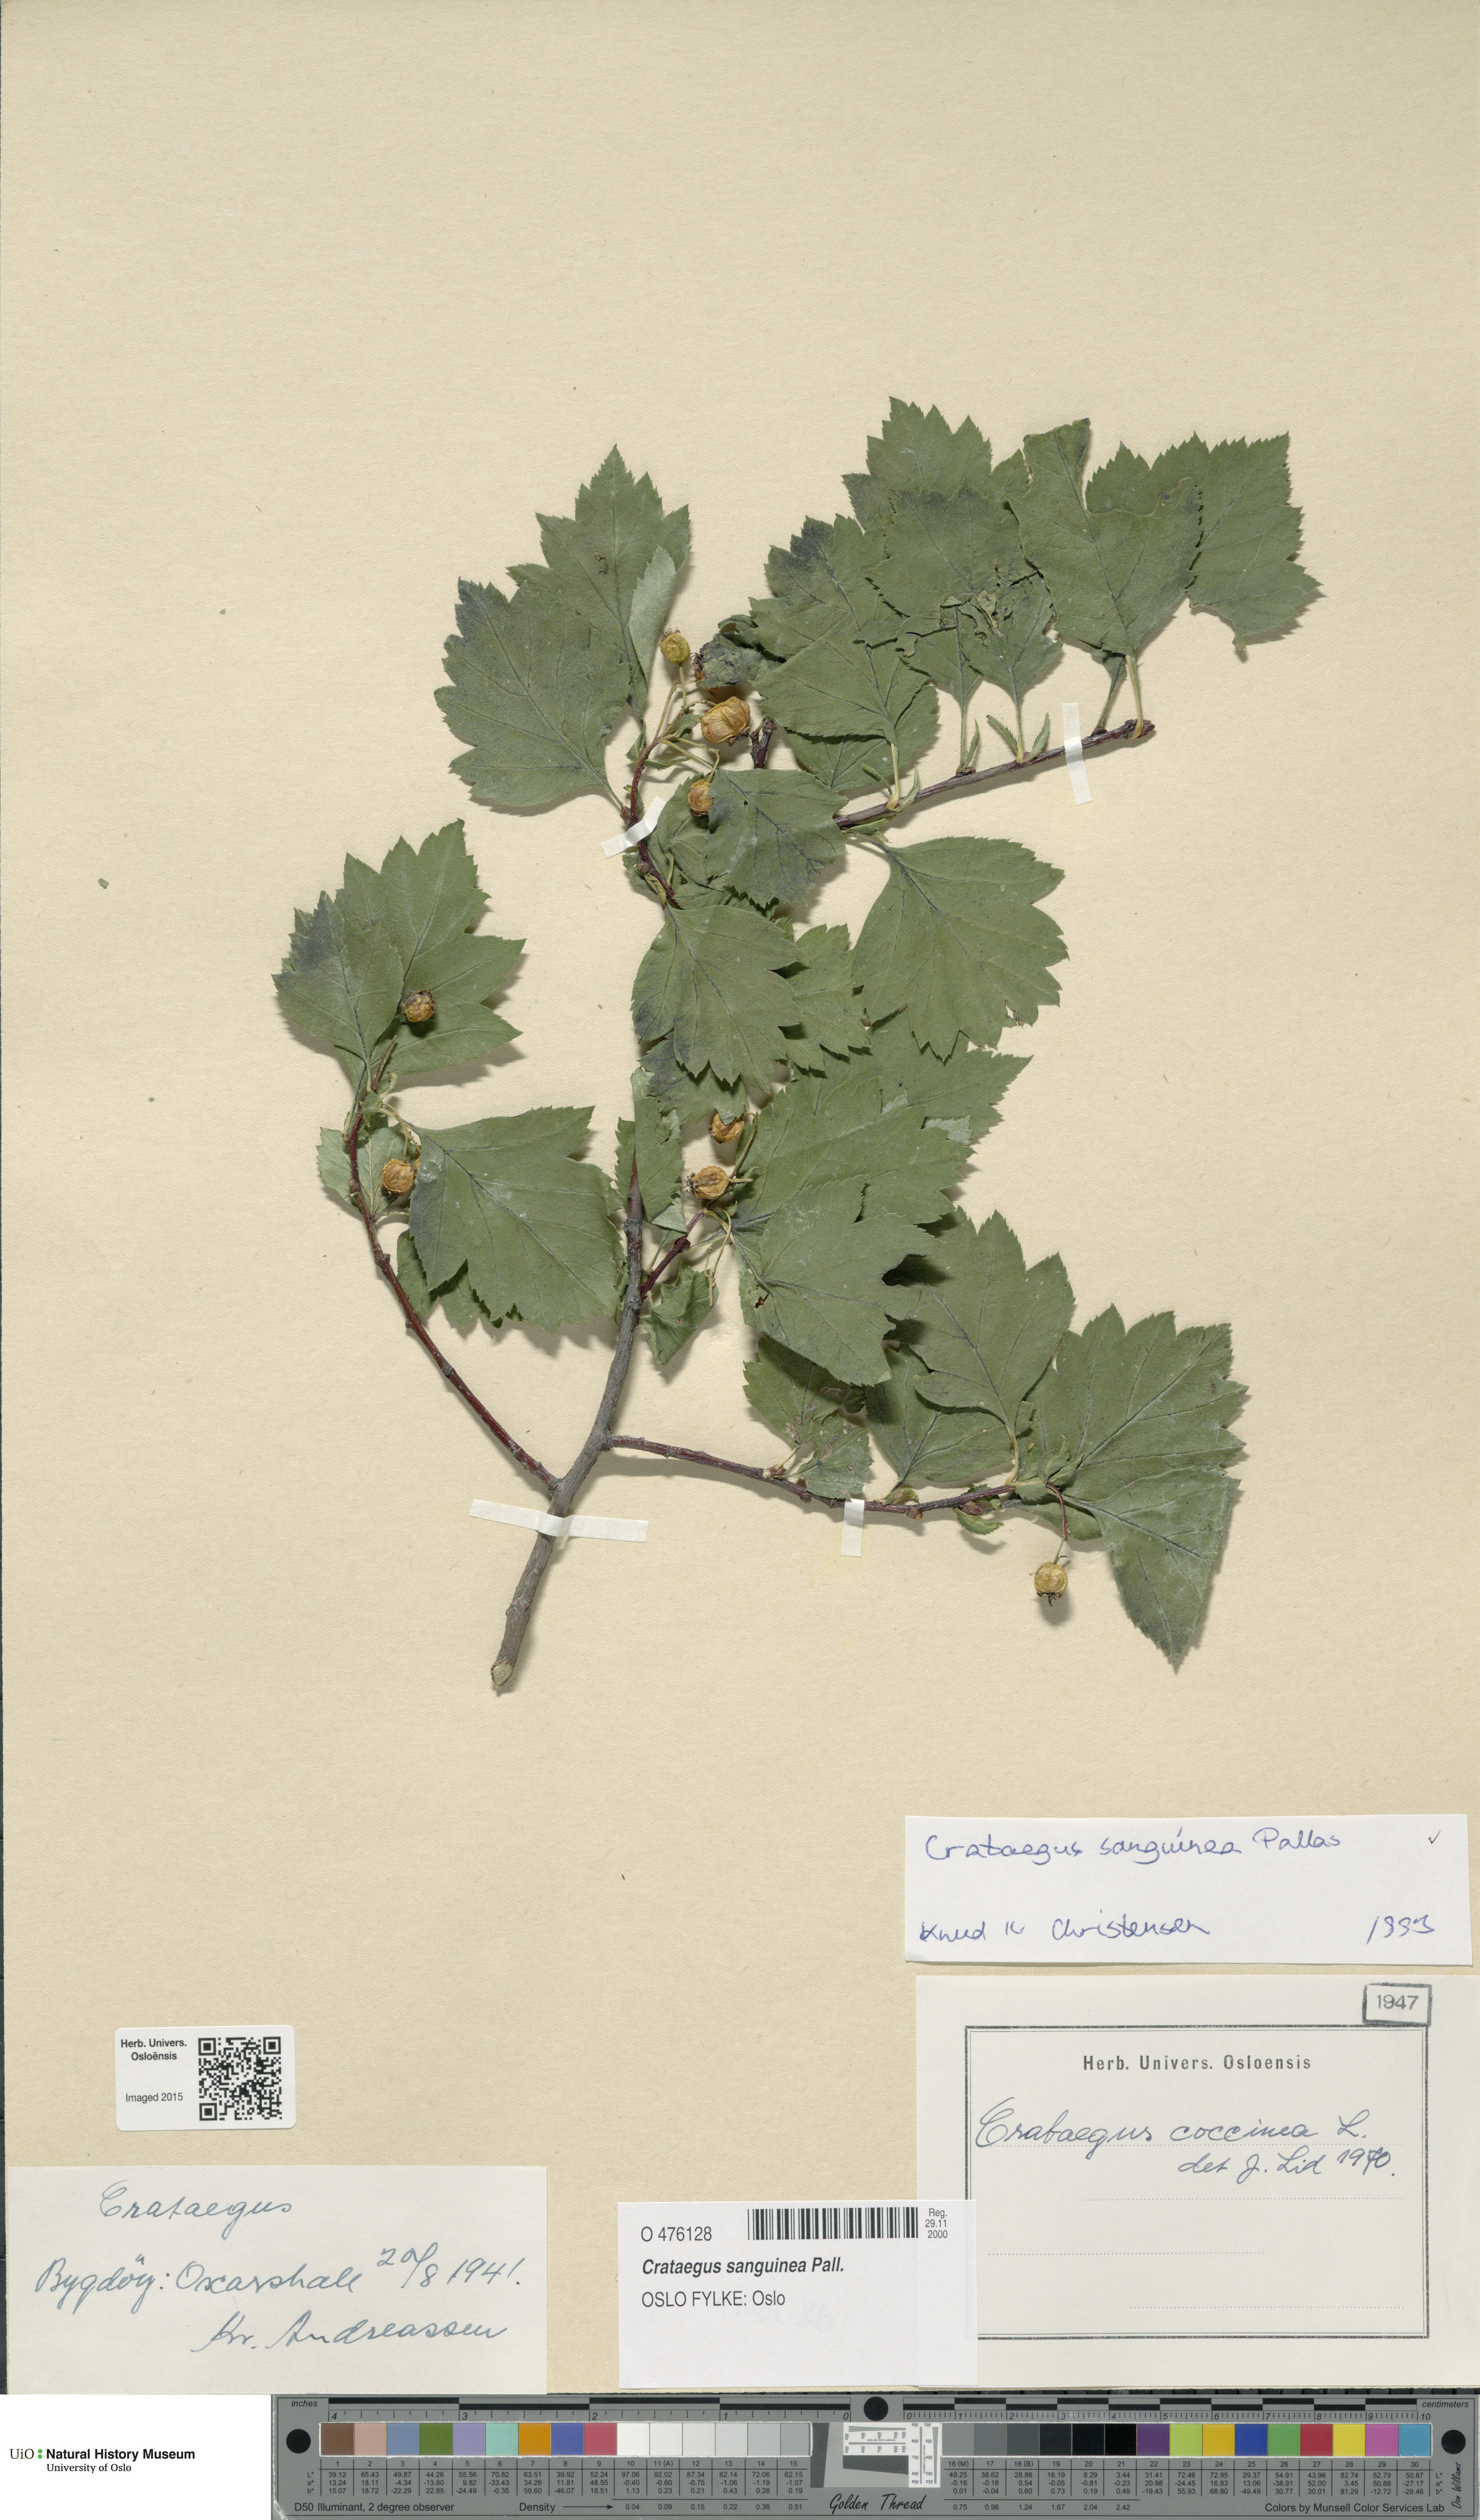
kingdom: Plantae
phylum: Tracheophyta
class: Magnoliopsida
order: Rosales
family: Rosaceae
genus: Crataegus
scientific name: Crataegus sanguinea
